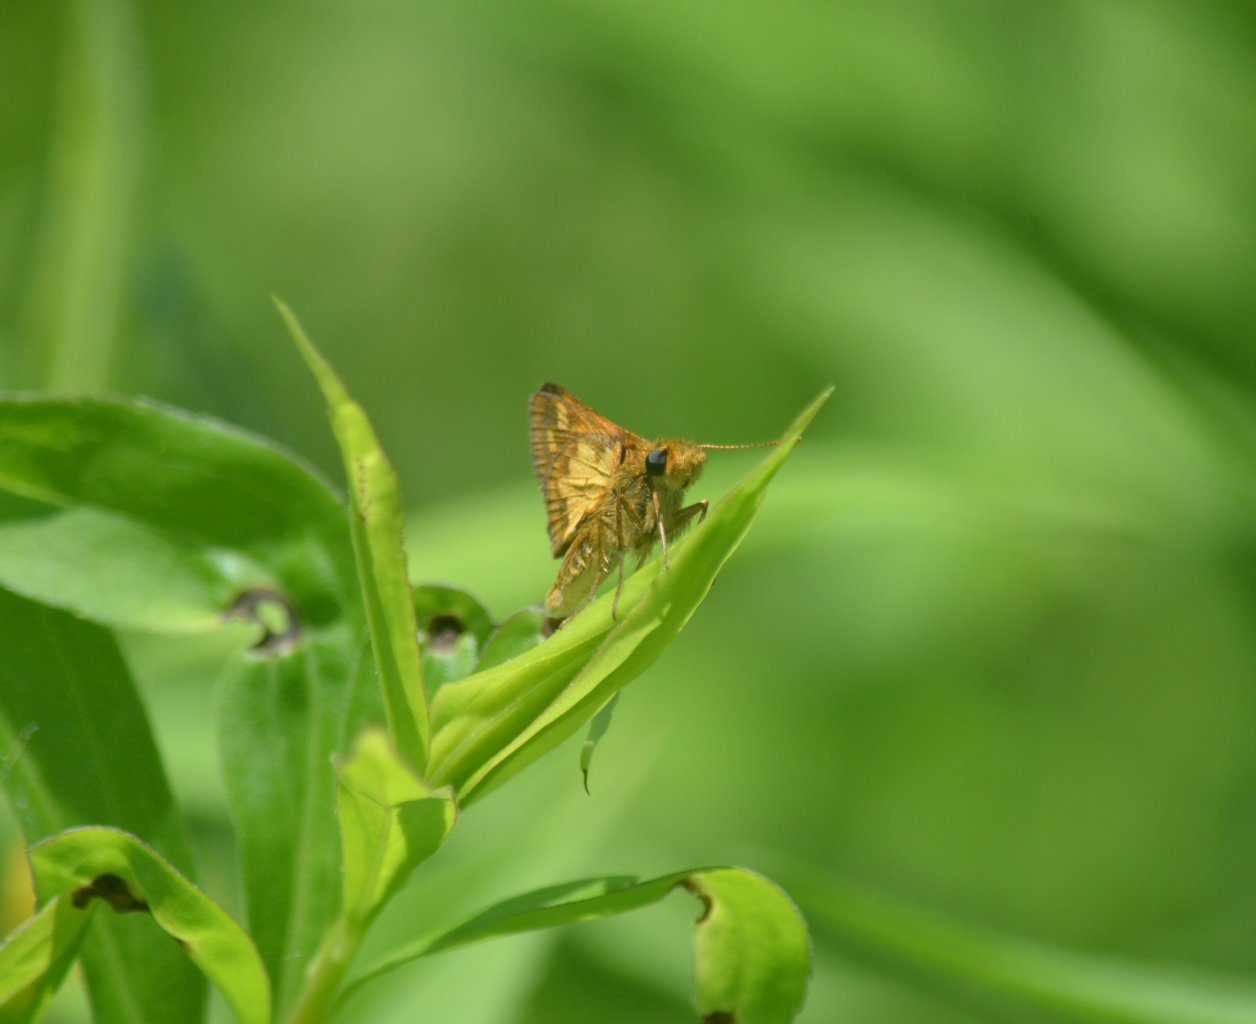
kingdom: Animalia
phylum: Arthropoda
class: Insecta
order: Lepidoptera
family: Hesperiidae
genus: Polites
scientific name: Polites coras
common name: Peck's Skipper
